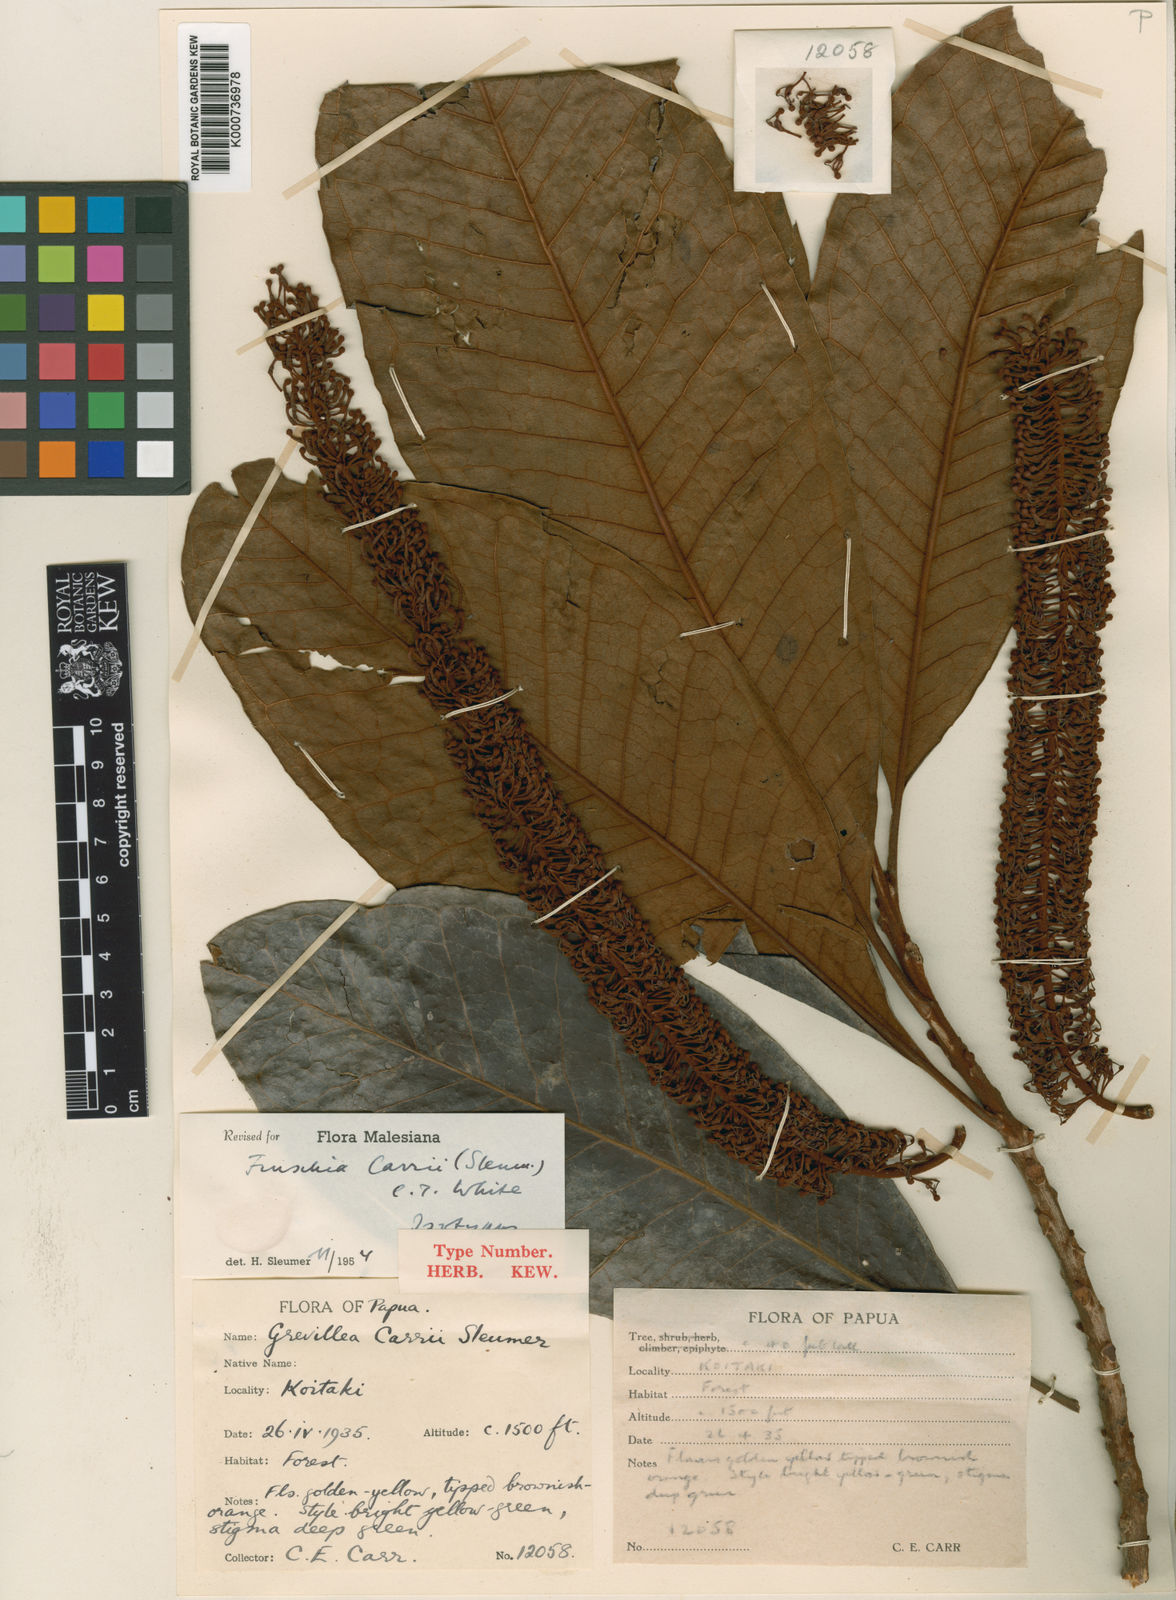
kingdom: Plantae
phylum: Tracheophyta
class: Magnoliopsida
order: Proteales
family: Proteaceae
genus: Finschia
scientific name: Finschia rufa
